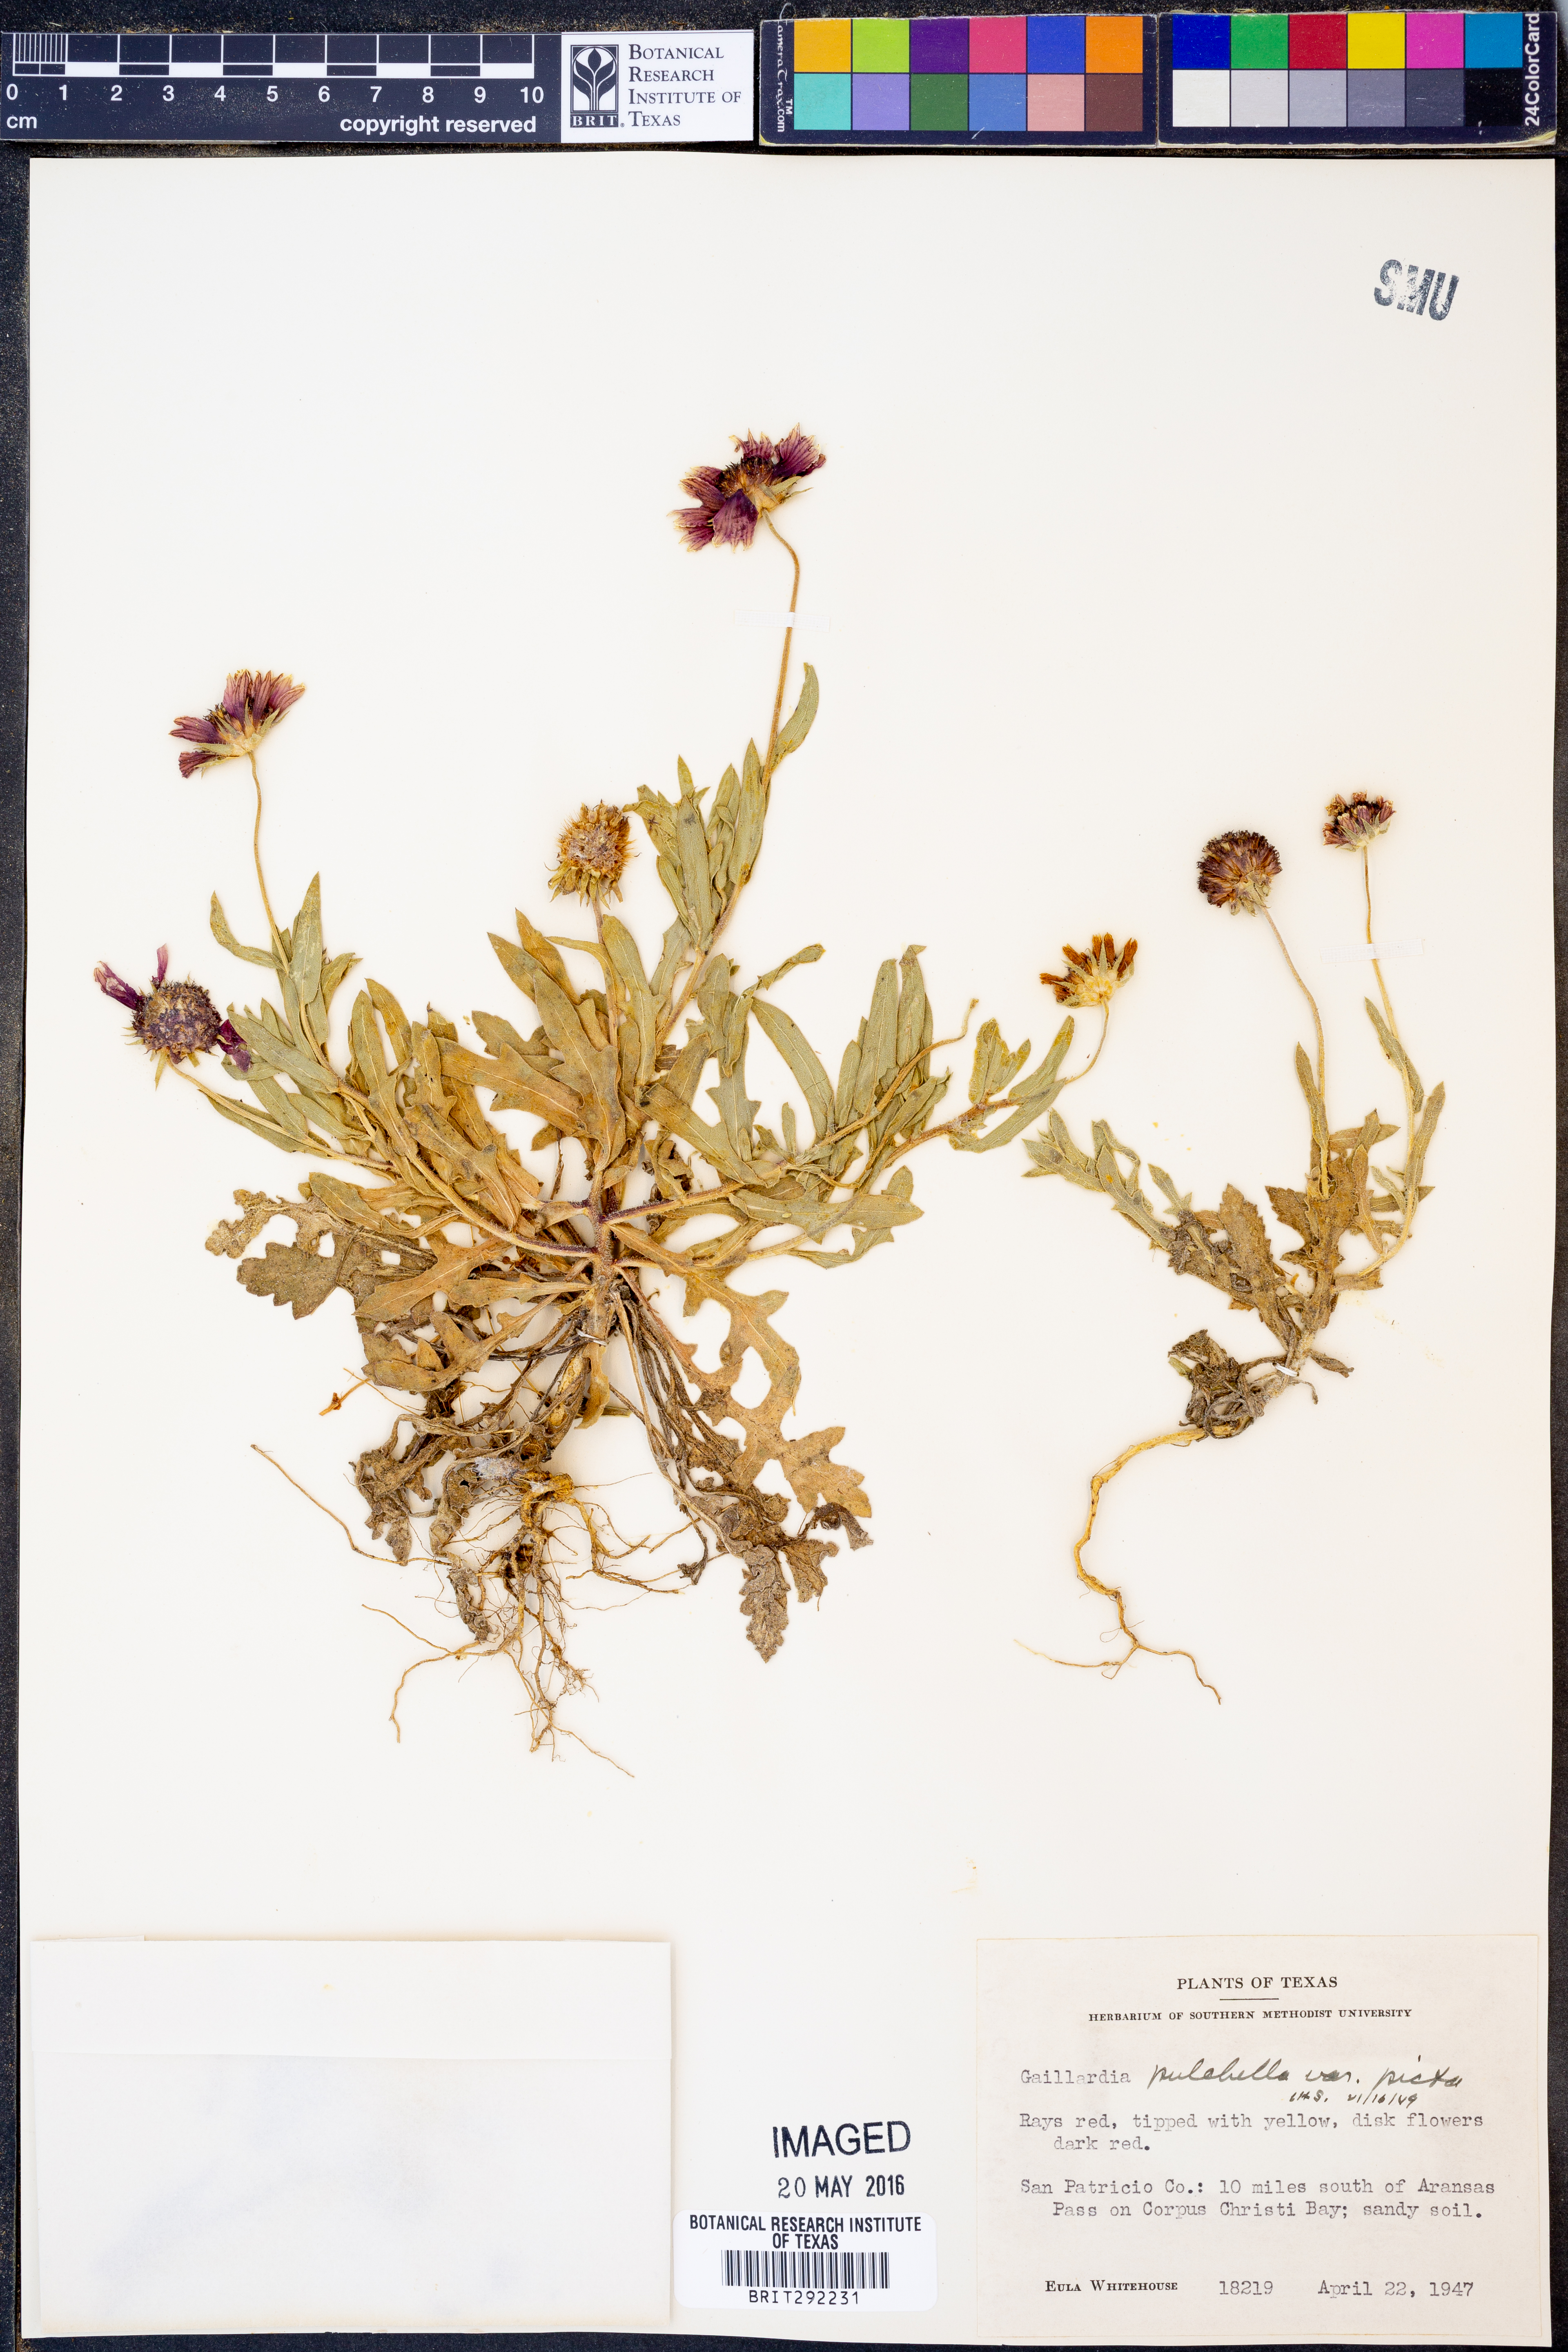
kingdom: Plantae
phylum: Tracheophyta
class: Magnoliopsida
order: Asterales
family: Asteraceae
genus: Gaillardia
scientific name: Gaillardia pulchella
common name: Firewheel
